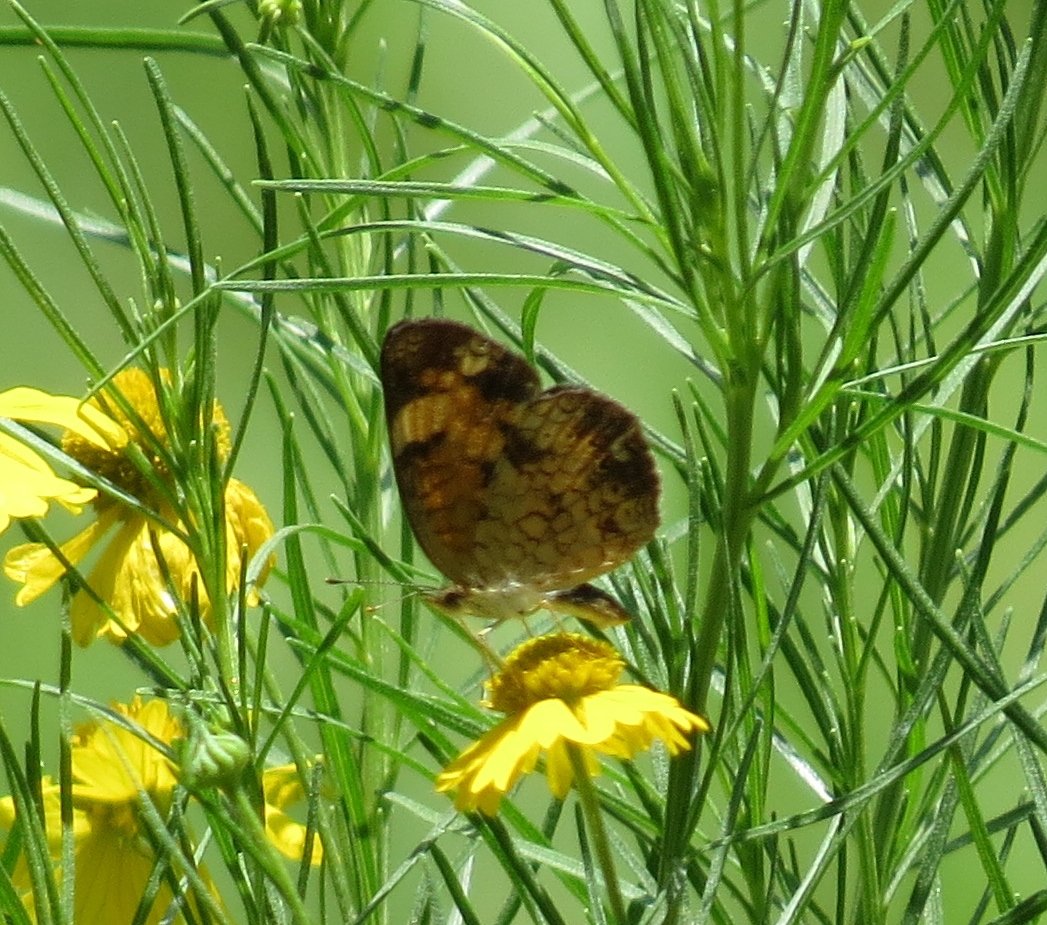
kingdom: Animalia
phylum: Arthropoda
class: Insecta
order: Lepidoptera
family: Nymphalidae
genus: Phyciodes
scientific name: Phyciodes tharos
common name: Pearl Crescent
